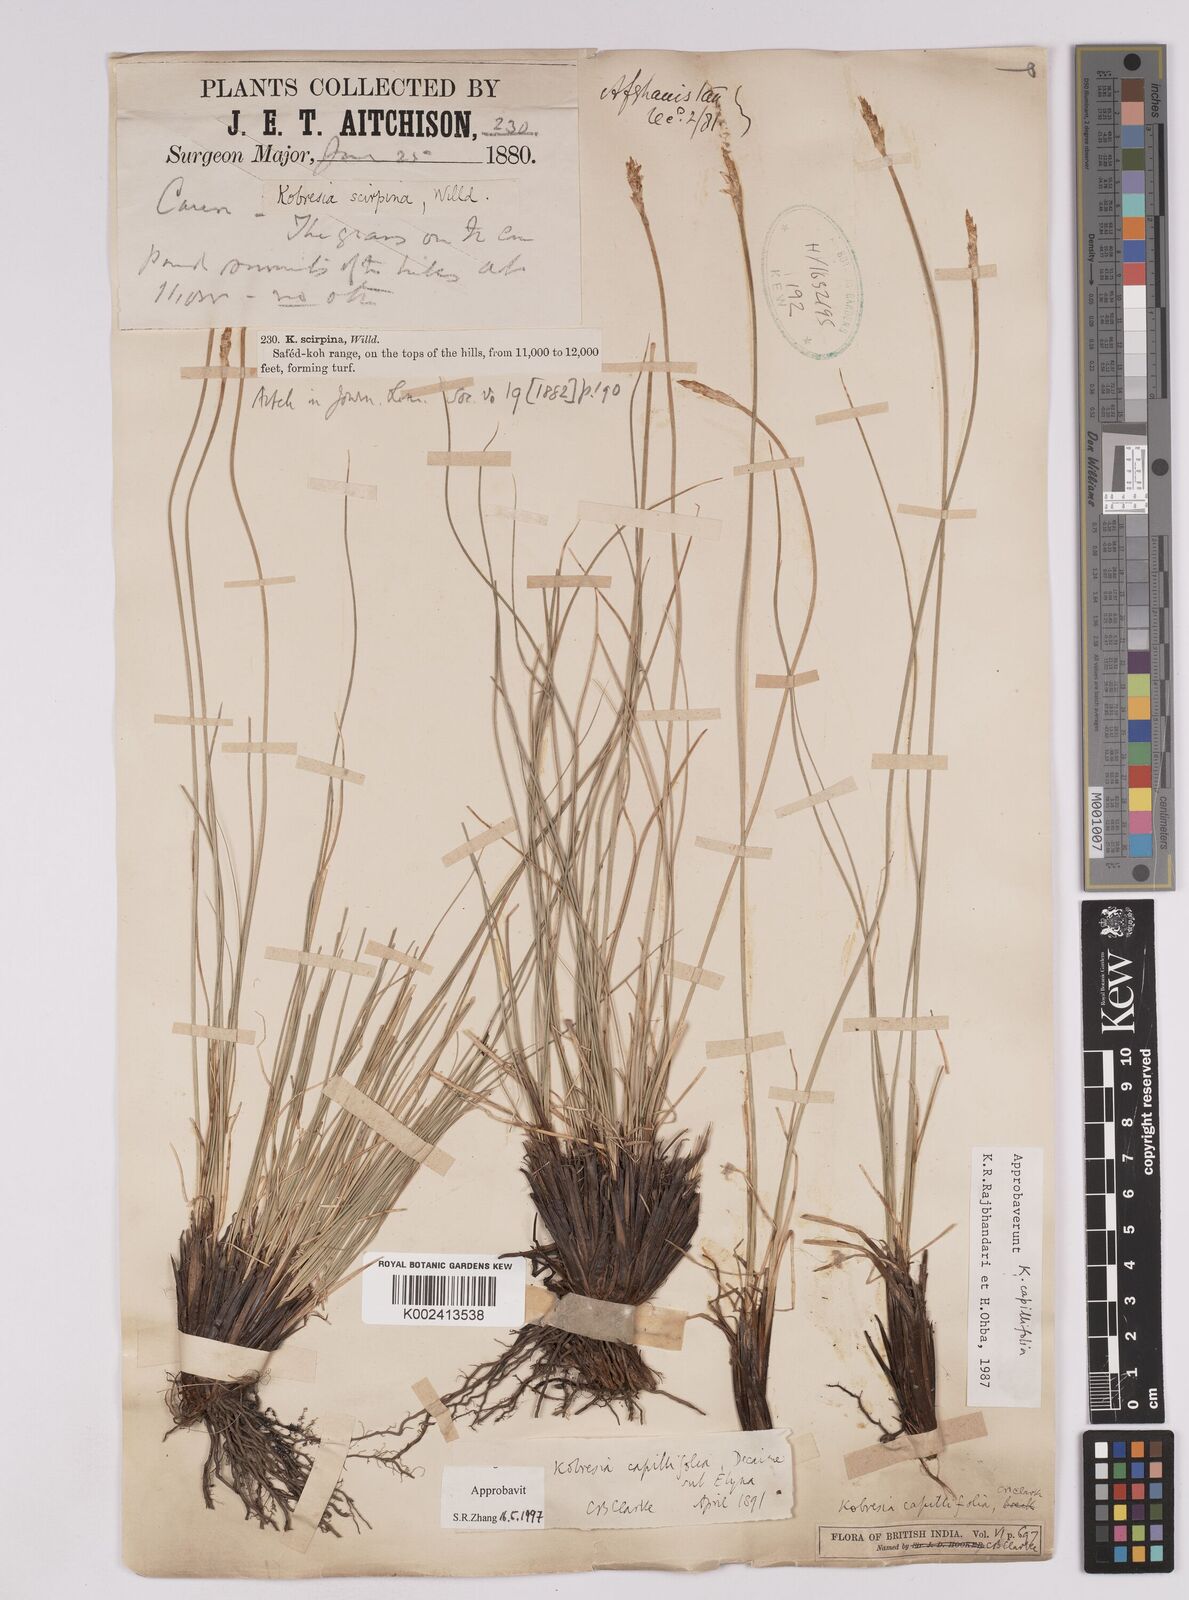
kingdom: Plantae
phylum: Tracheophyta
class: Liliopsida
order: Poales
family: Cyperaceae
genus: Carex
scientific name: Carex capillifolia
